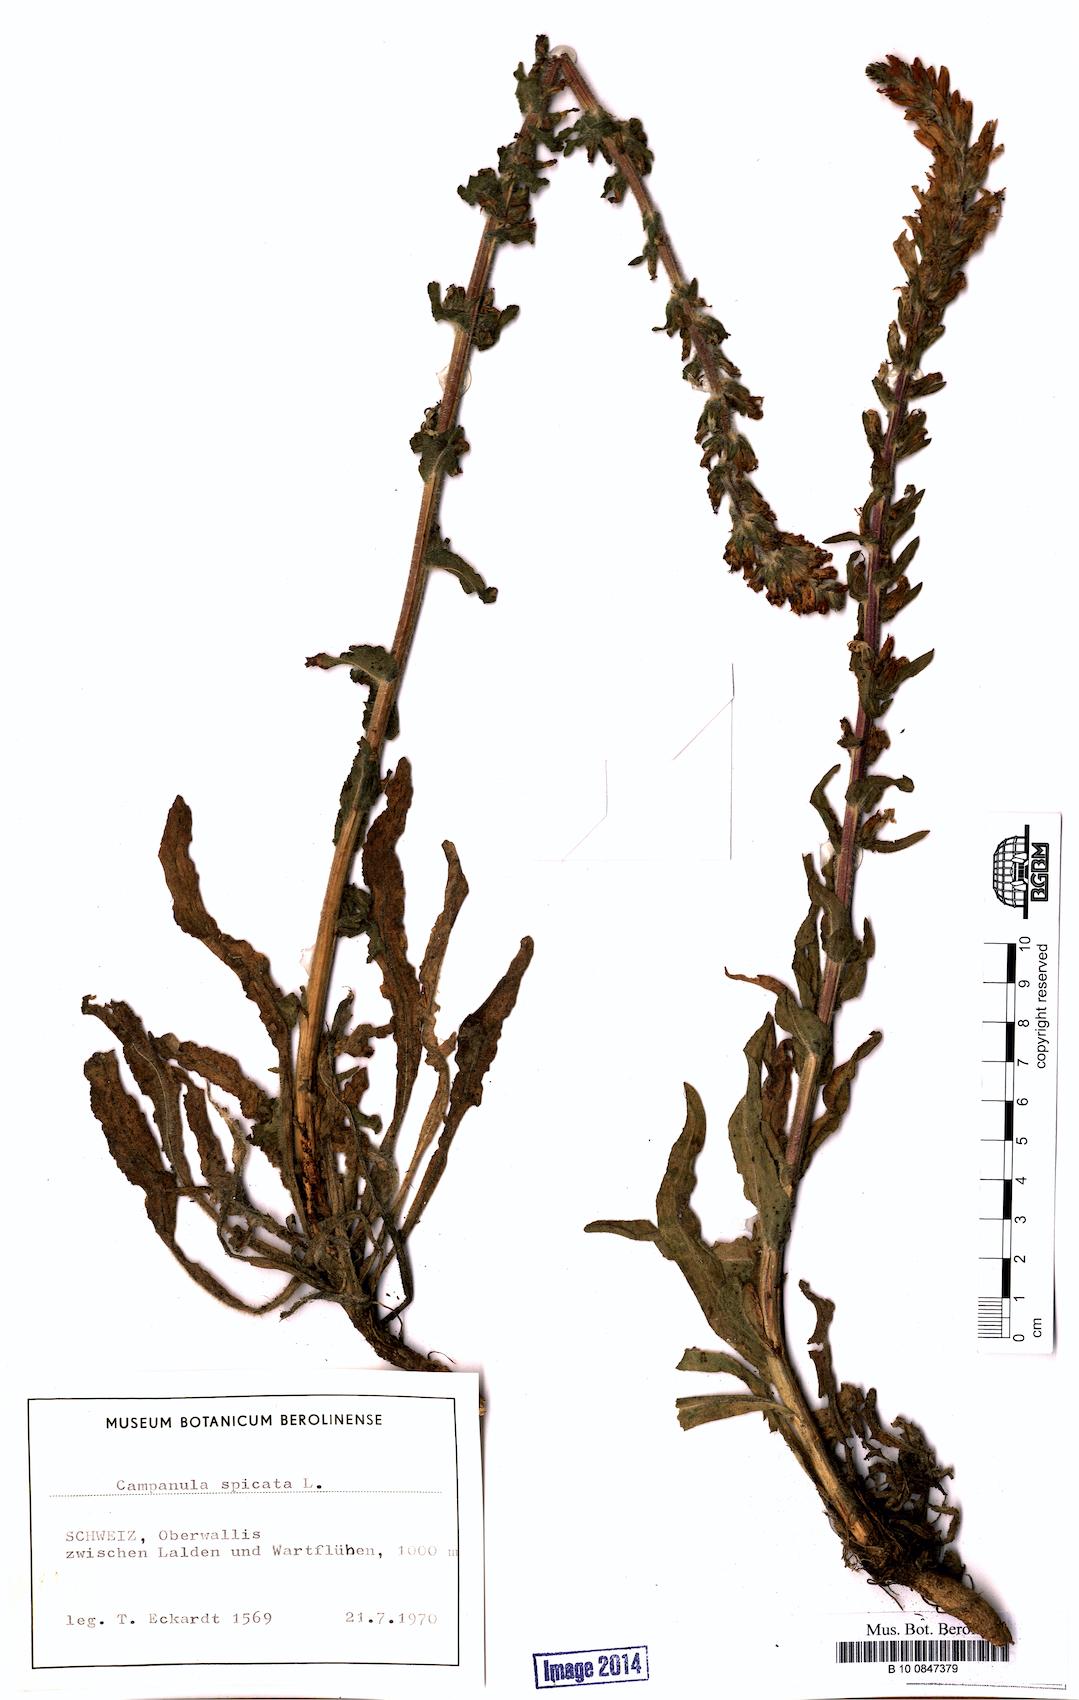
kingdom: Plantae
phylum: Tracheophyta
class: Magnoliopsida
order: Asterales
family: Campanulaceae
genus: Campanula
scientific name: Campanula spicata
